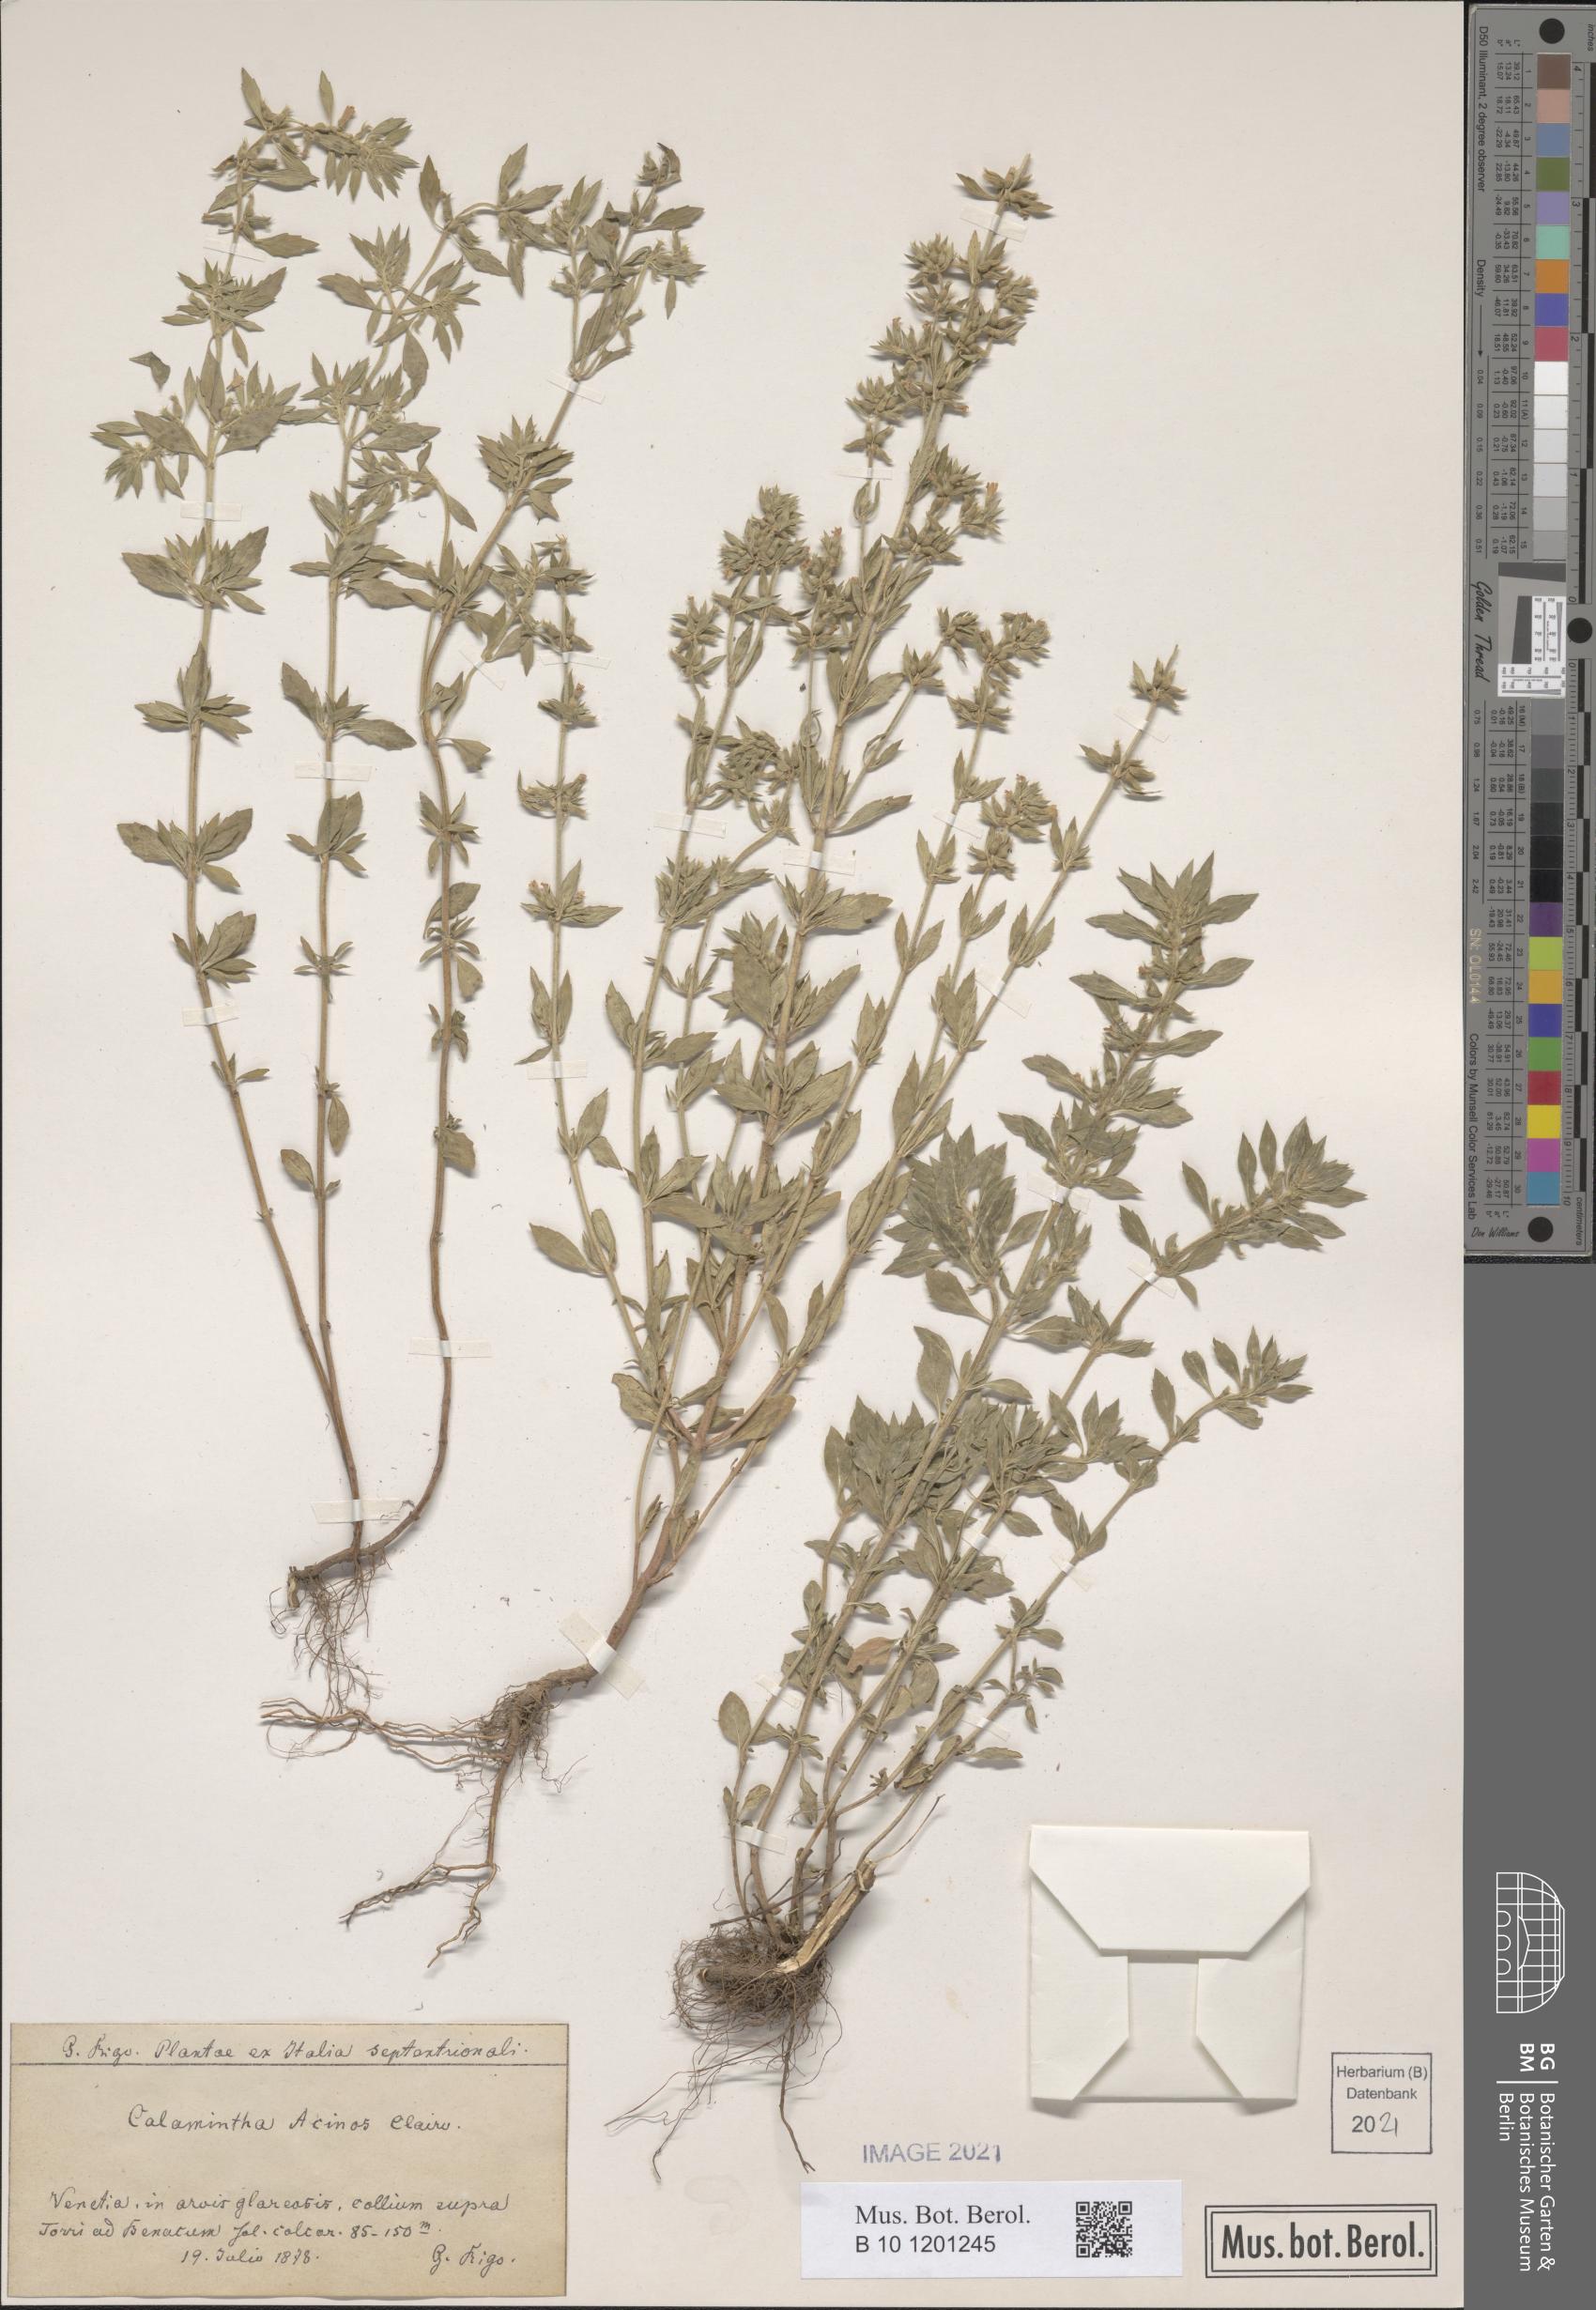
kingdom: Plantae
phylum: Tracheophyta
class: Magnoliopsida
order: Lamiales
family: Lamiaceae
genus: Clinopodium
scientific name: Clinopodium acinos
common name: Basil thyme
